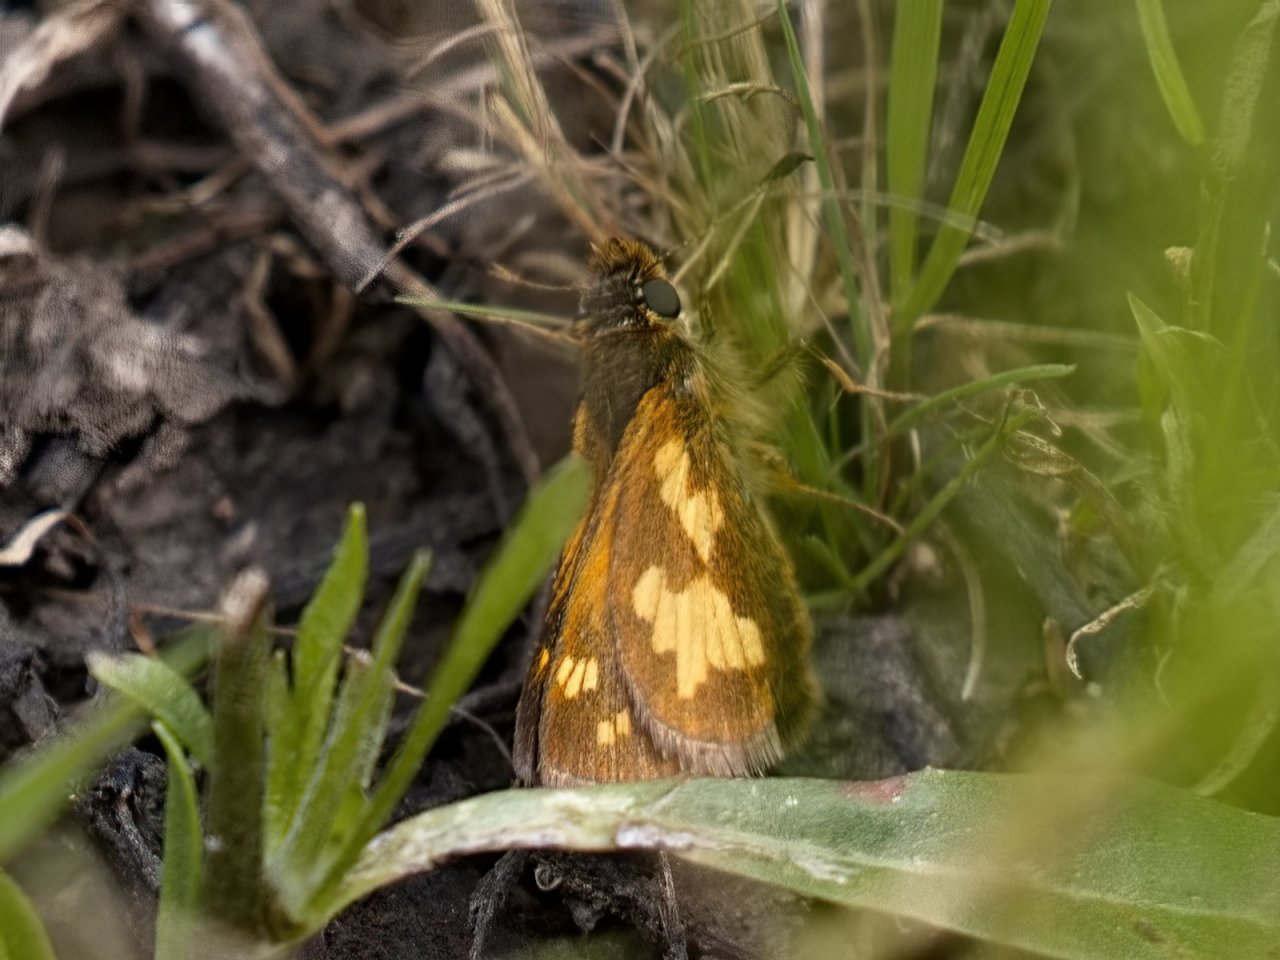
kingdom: Animalia
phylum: Arthropoda
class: Insecta
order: Lepidoptera
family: Hesperiidae
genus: Polites
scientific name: Polites coras
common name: Peck's Skipper
